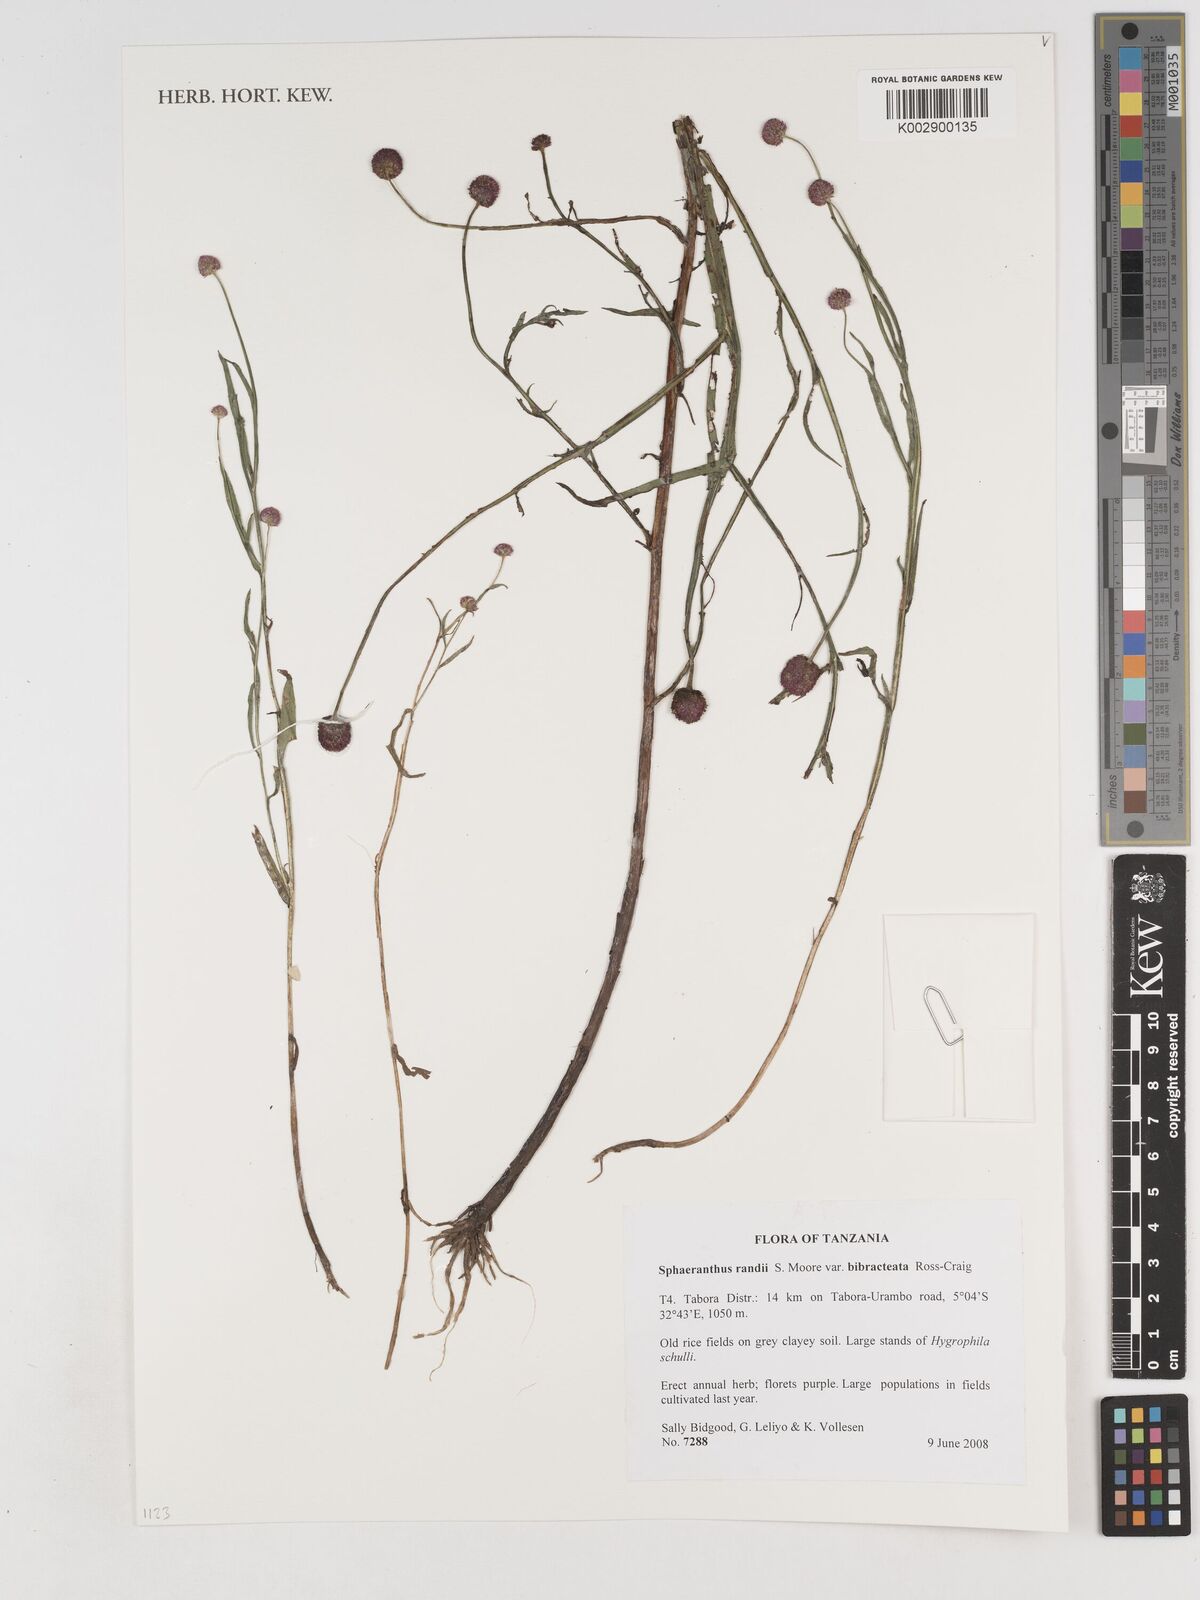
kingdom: Plantae
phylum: Tracheophyta
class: Magnoliopsida
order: Asterales
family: Asteraceae
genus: Sphaeranthus
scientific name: Sphaeranthus randii
